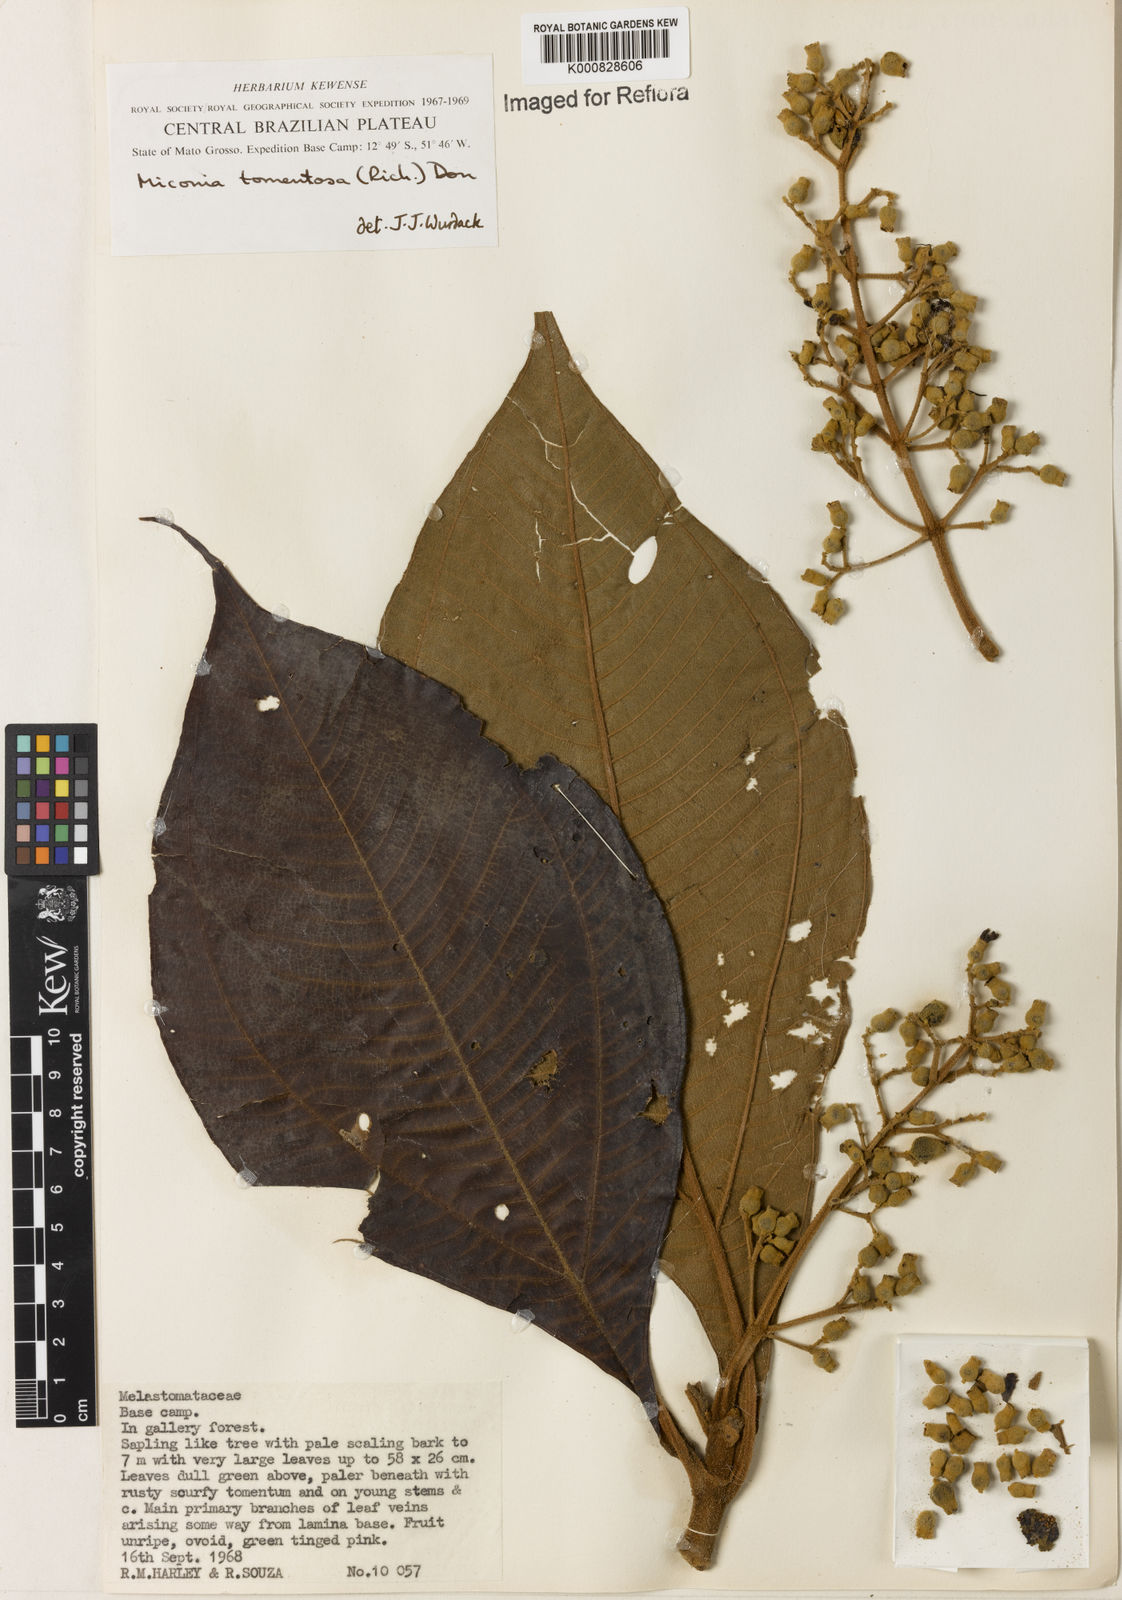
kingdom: Plantae
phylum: Tracheophyta
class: Magnoliopsida
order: Myrtales
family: Melastomataceae
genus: Miconia
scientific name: Miconia tomentosa
